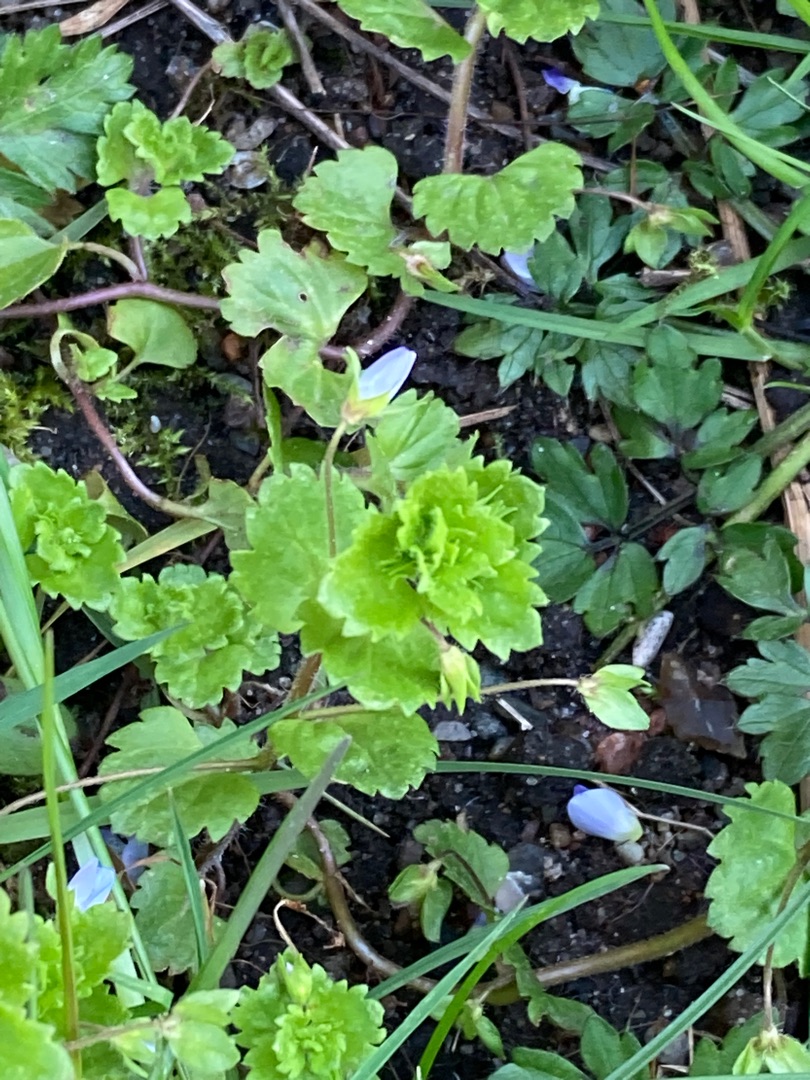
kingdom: Plantae
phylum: Tracheophyta
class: Magnoliopsida
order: Lamiales
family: Plantaginaceae
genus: Veronica
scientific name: Veronica persica
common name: Storkronet ærenpris
